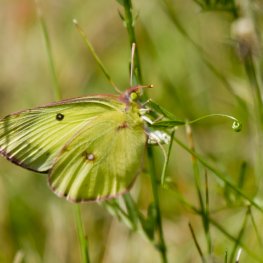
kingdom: Animalia
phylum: Arthropoda
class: Insecta
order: Lepidoptera
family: Pieridae
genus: Colias
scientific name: Colias philodice
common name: Clouded Sulphur
